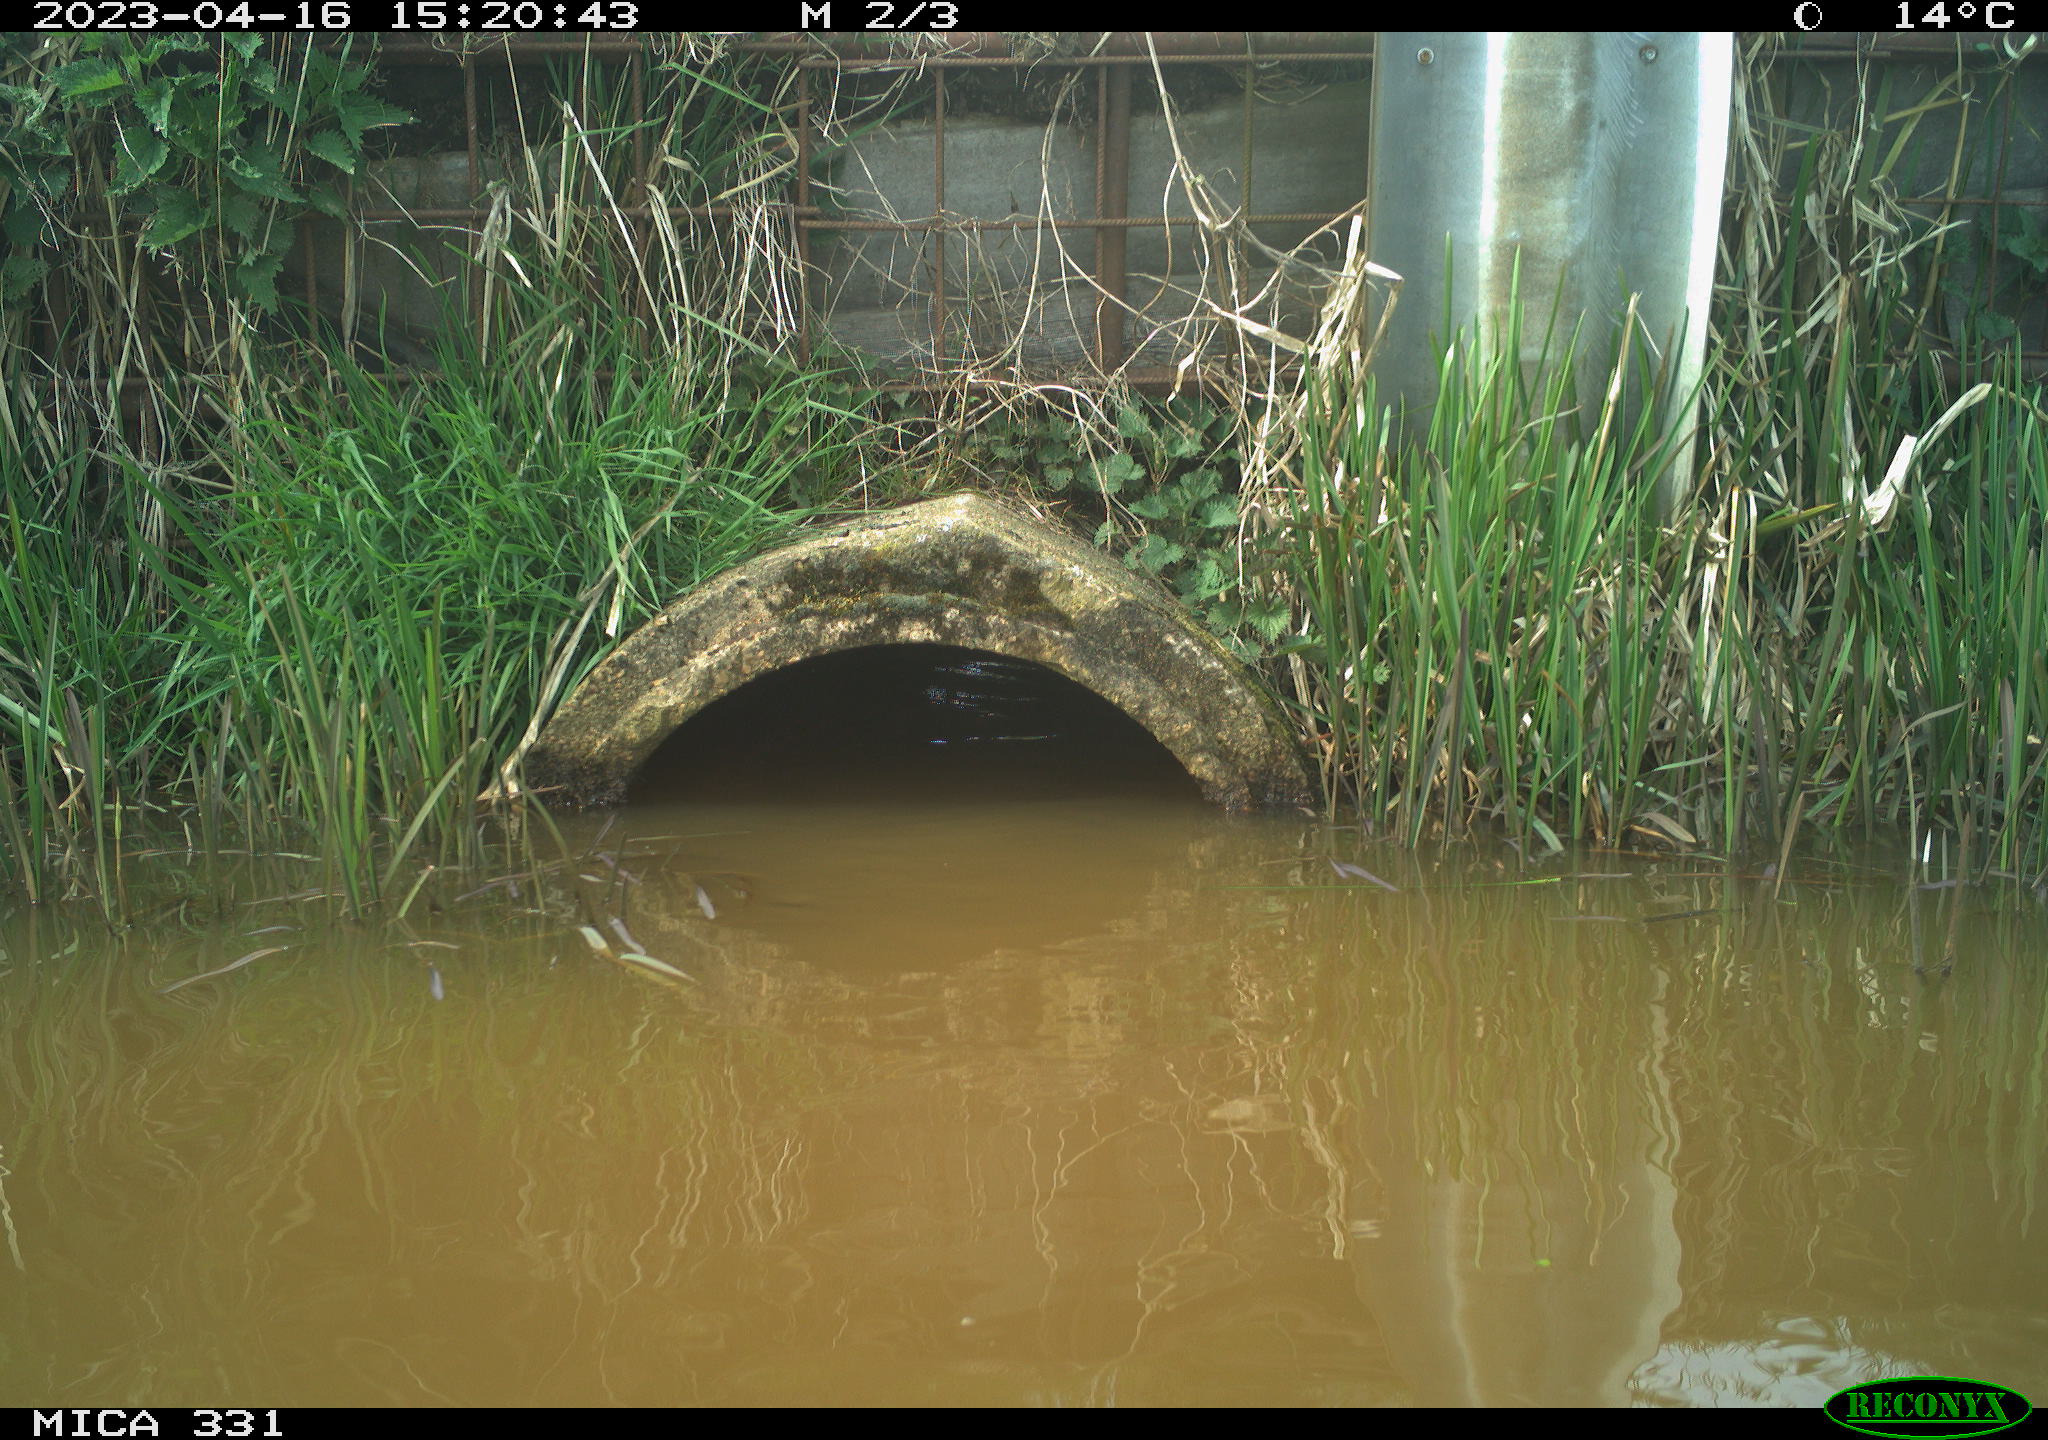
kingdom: Animalia
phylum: Chordata
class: Aves
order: Gruiformes
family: Rallidae
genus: Fulica
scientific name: Fulica atra
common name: Eurasian coot
